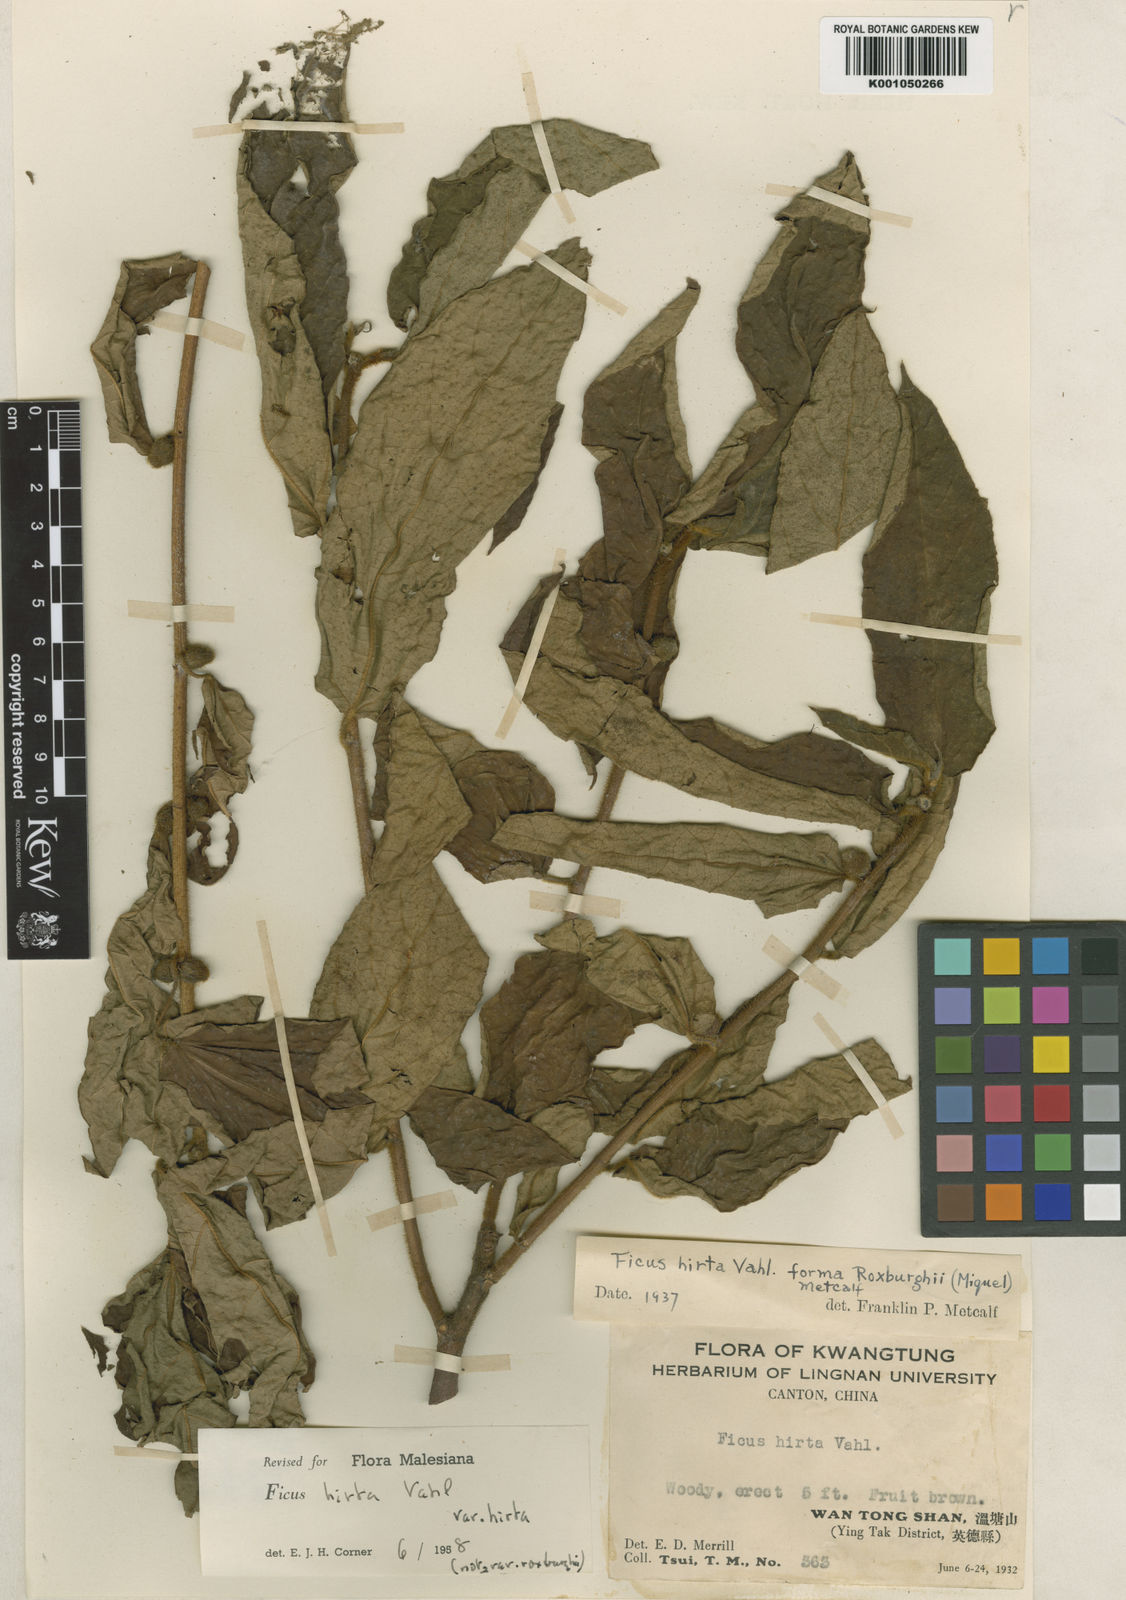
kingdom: Plantae
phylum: Tracheophyta
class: Magnoliopsida
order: Rosales
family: Moraceae
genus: Ficus
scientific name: Ficus simplicissima
